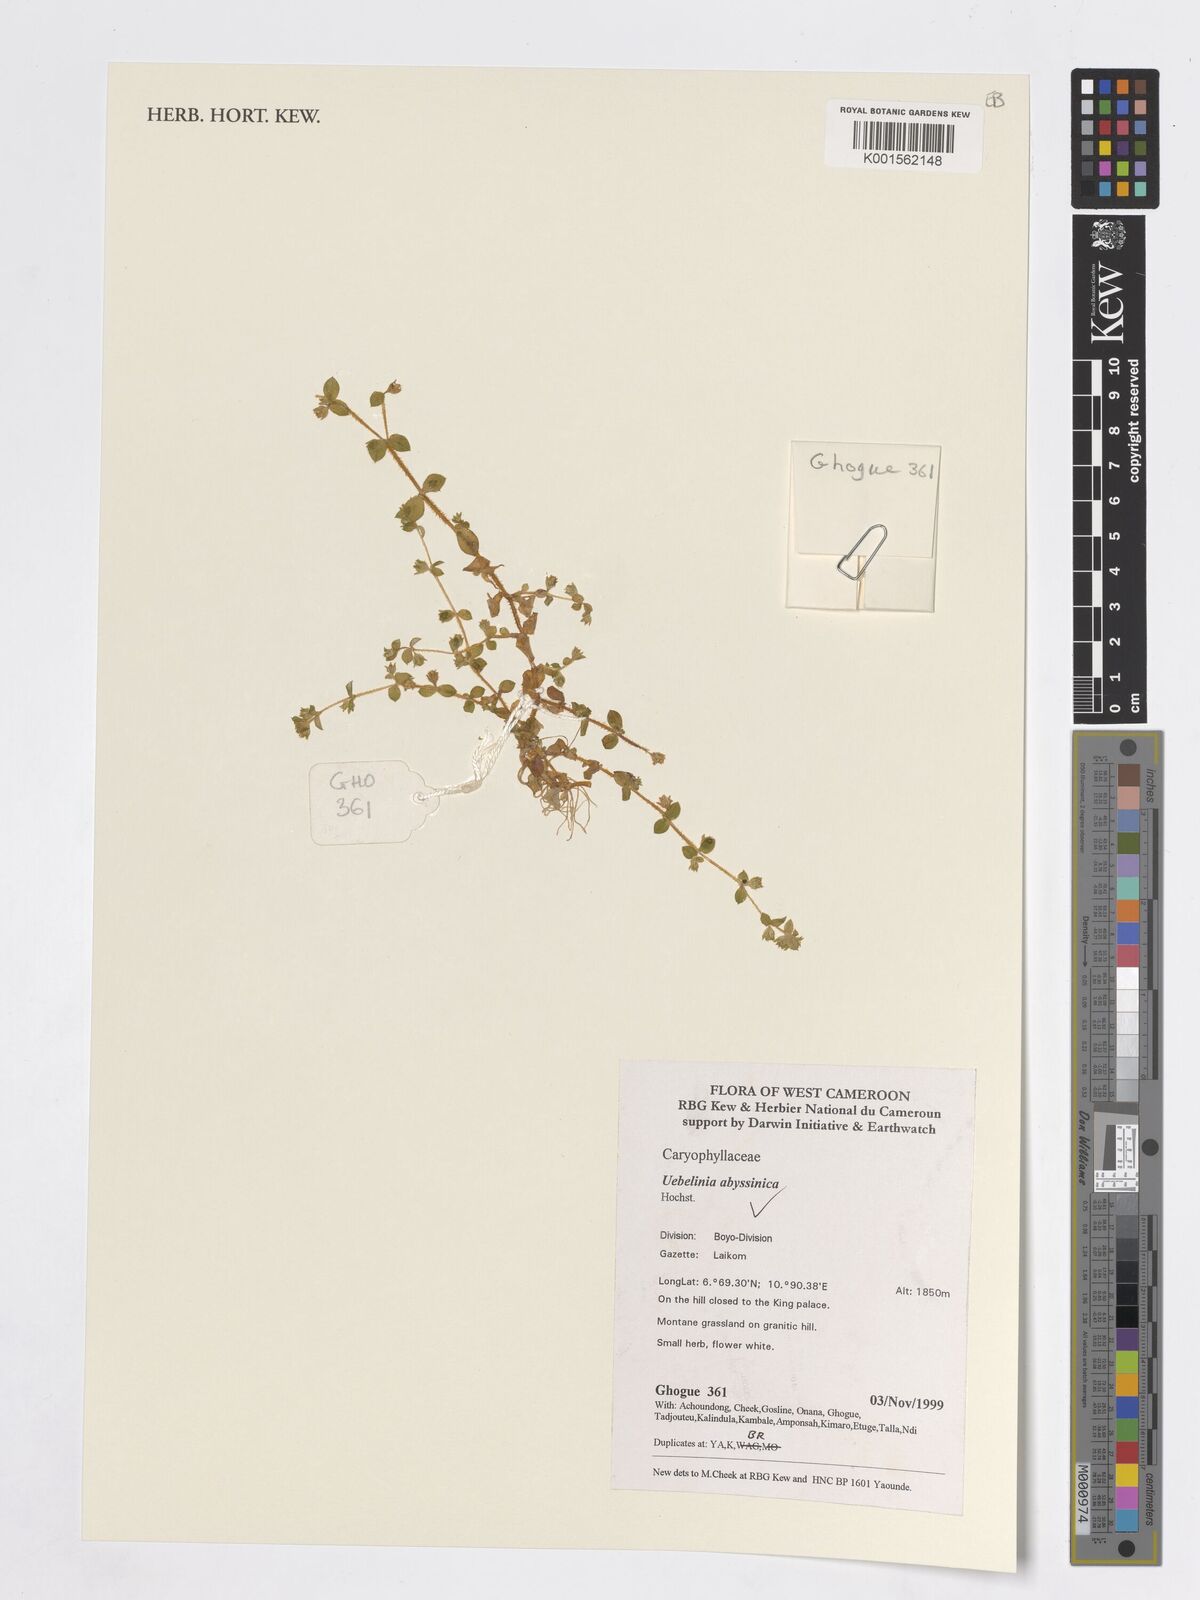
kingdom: Plantae
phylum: Tracheophyta
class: Magnoliopsida
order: Caryophyllales
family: Caryophyllaceae
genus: Silene
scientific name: Silene abyssinica
